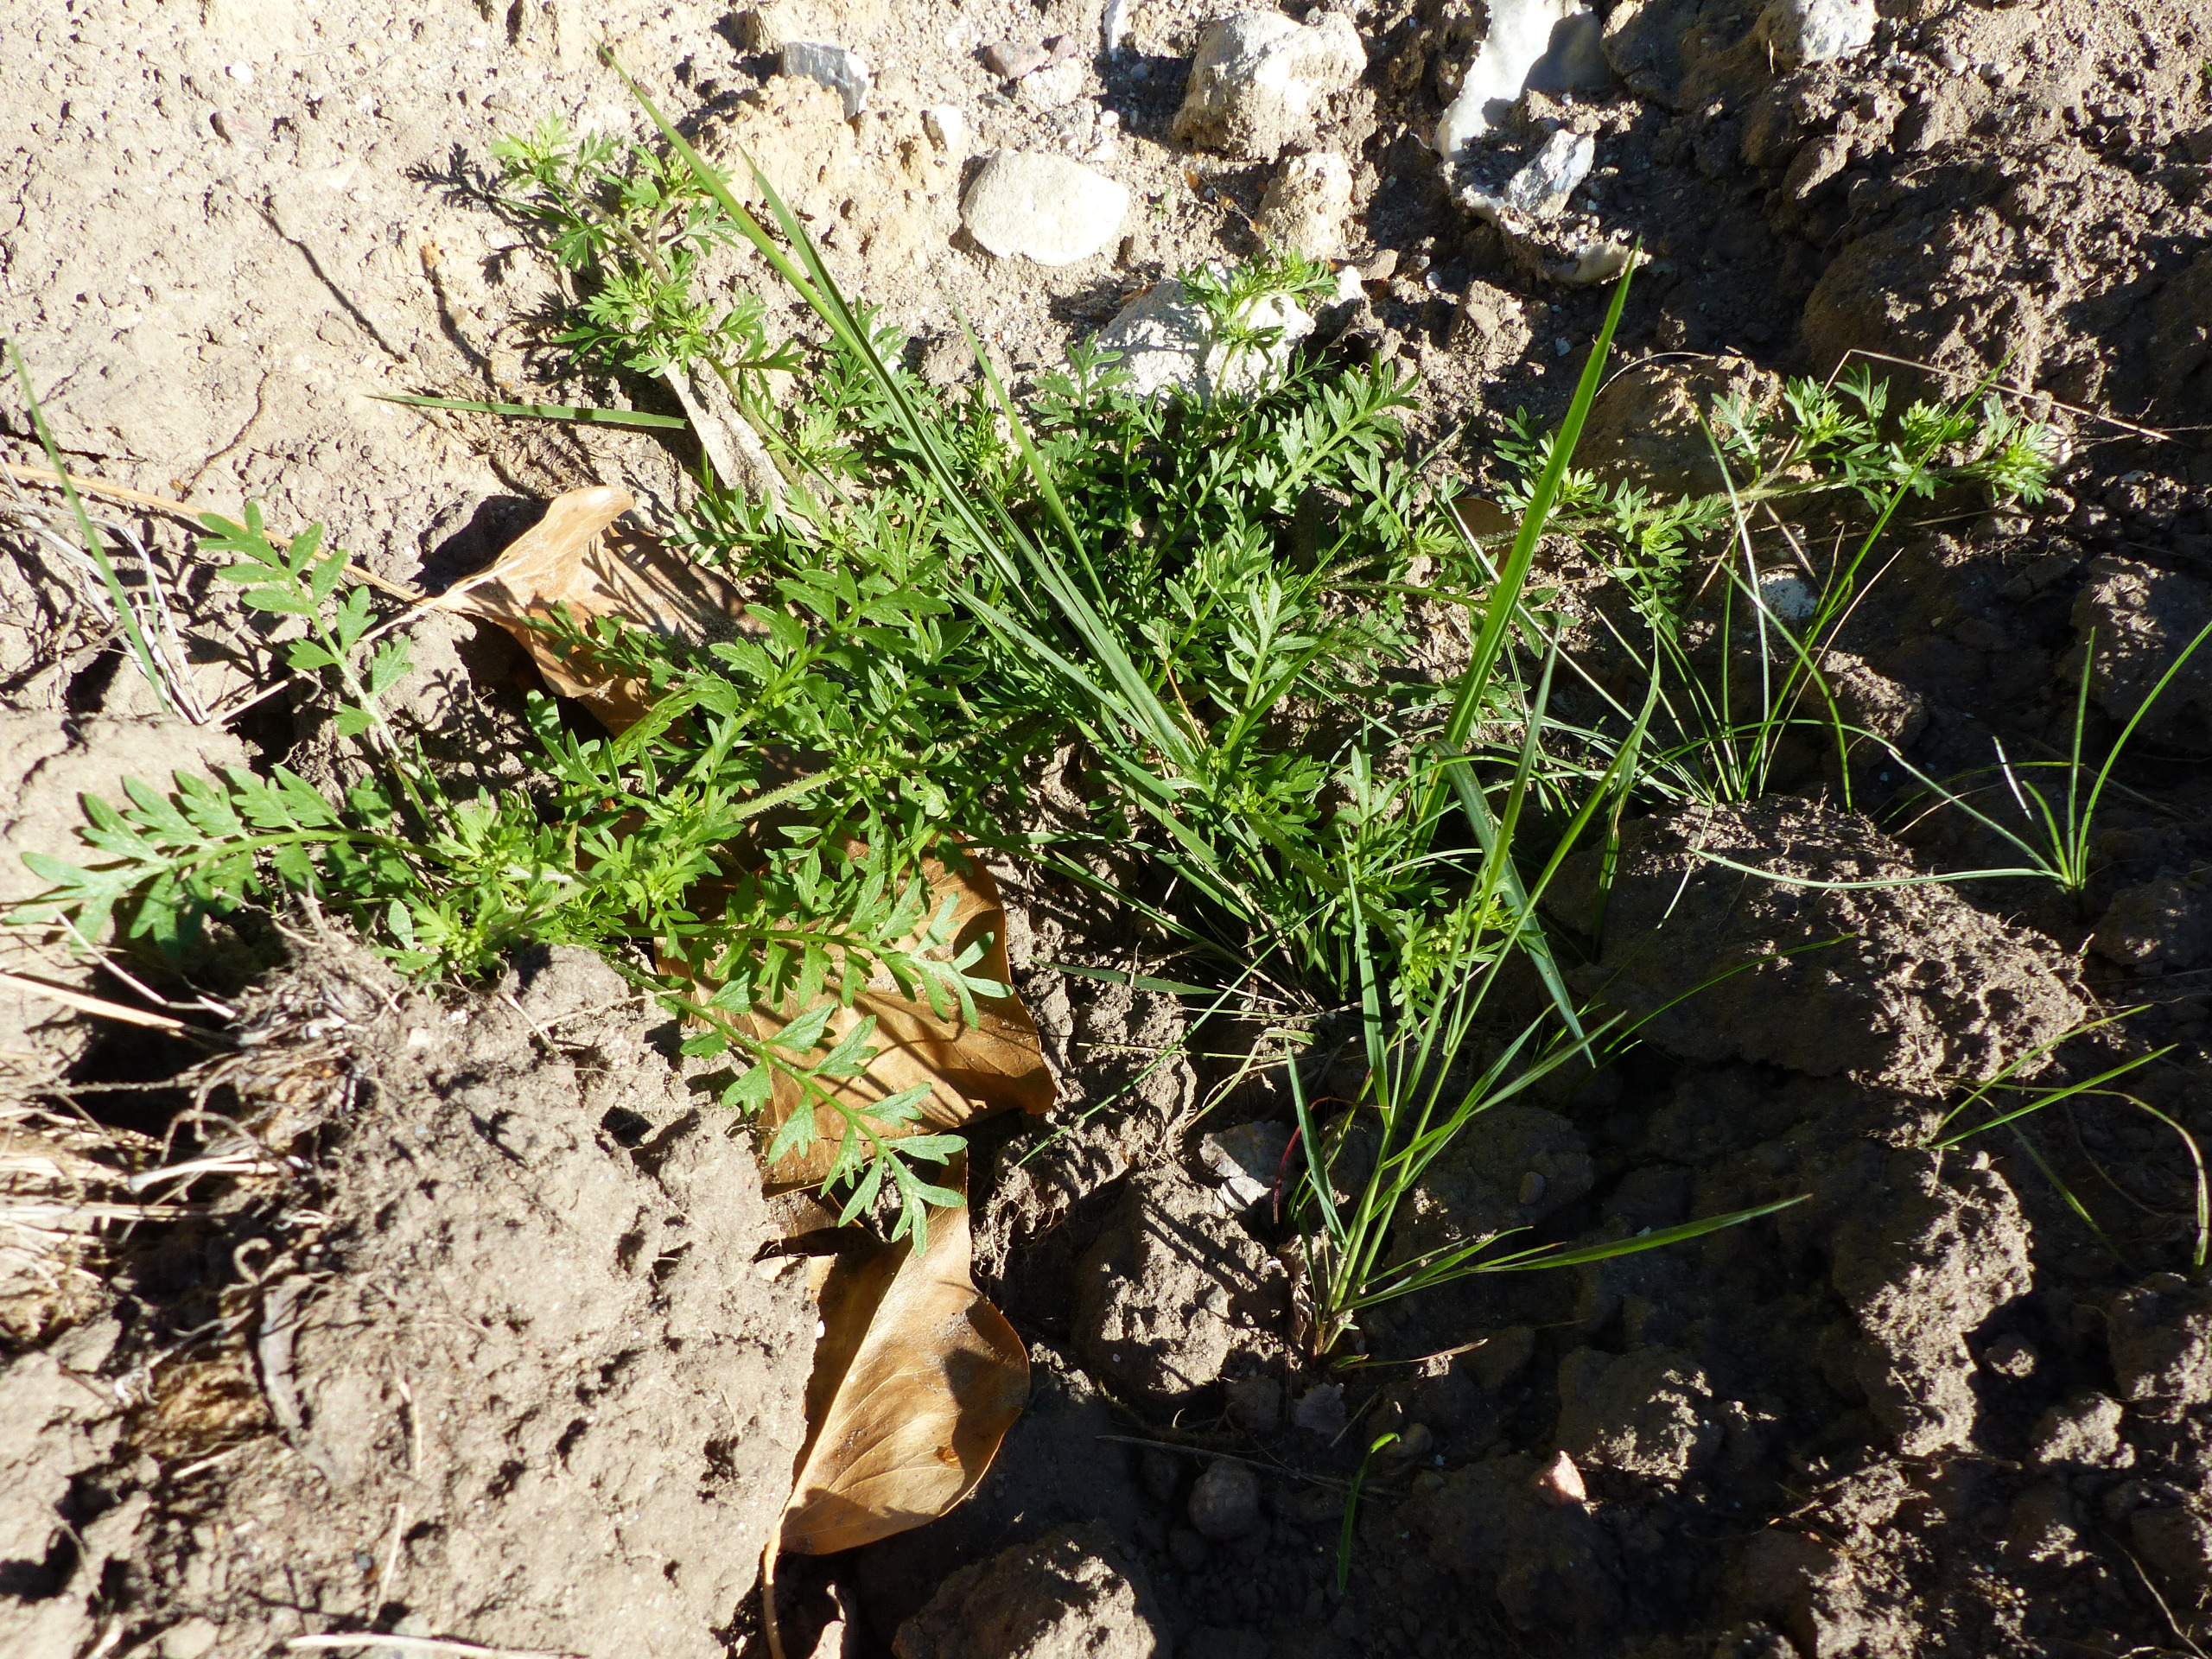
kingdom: Plantae
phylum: Tracheophyta
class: Magnoliopsida
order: Brassicales
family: Brassicaceae
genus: Lepidium
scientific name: Lepidium coronopus
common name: Ravnefod
